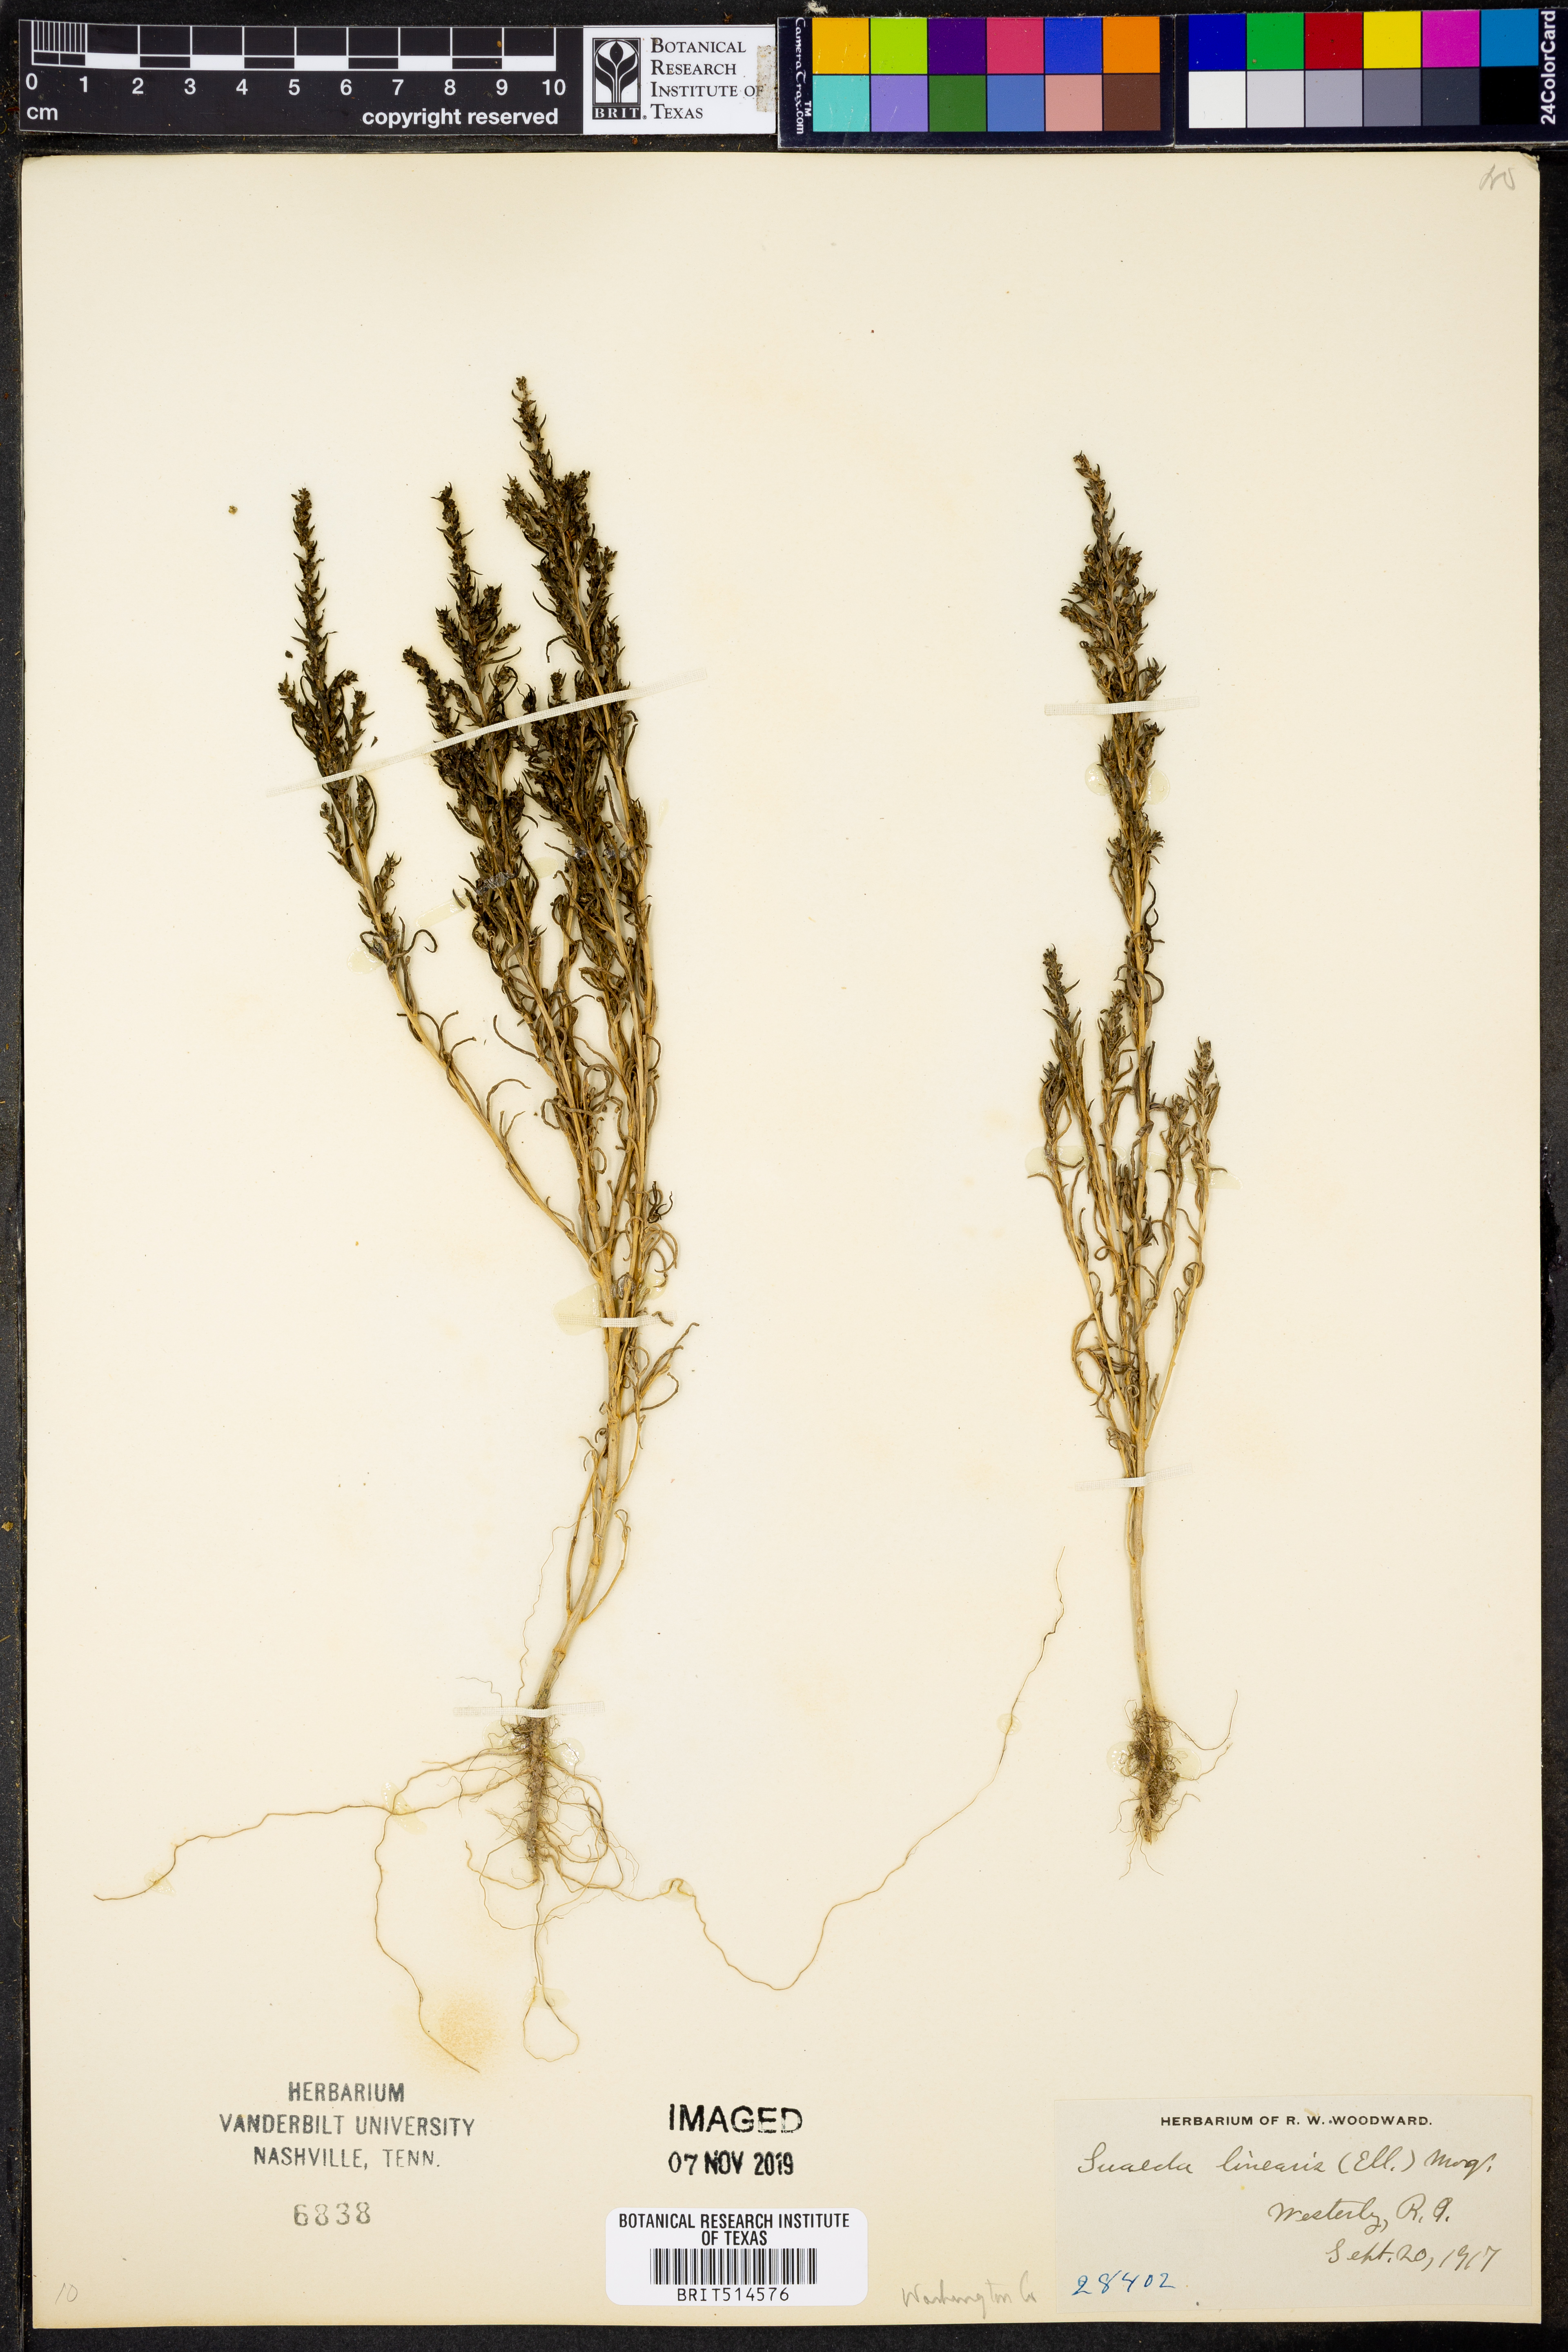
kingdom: Plantae
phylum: Tracheophyta
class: Magnoliopsida
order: Caryophyllales
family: Amaranthaceae
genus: Suaeda
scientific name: Suaeda linearis
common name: Annual seepweed
